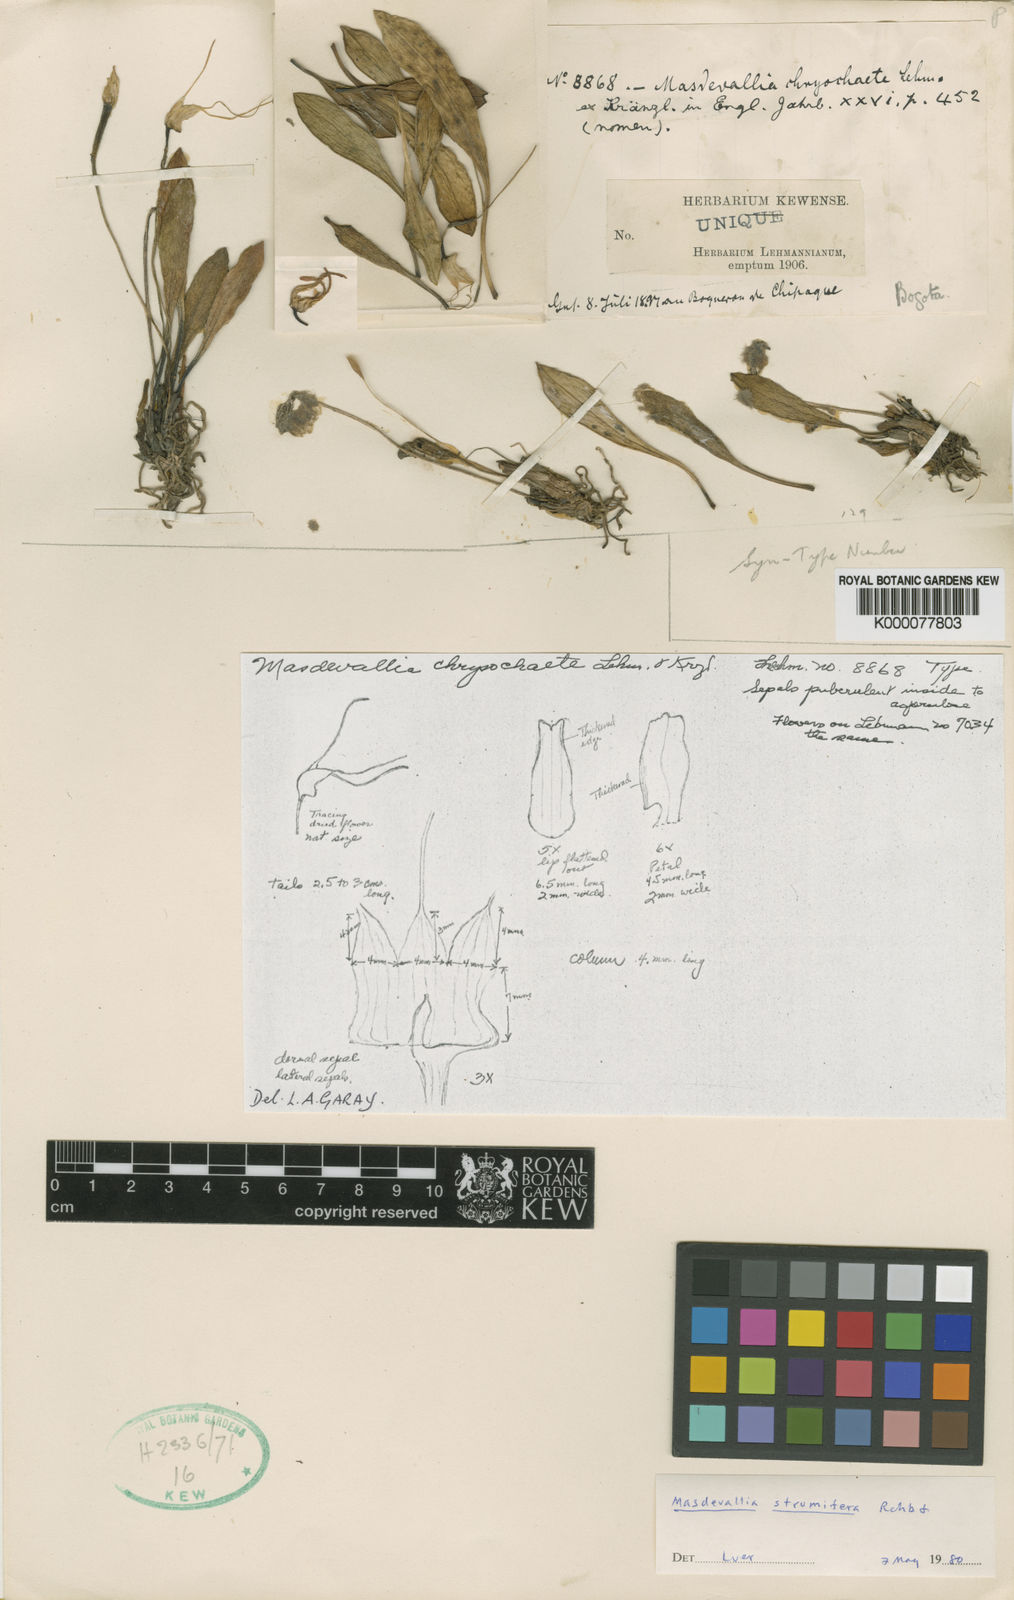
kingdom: Plantae
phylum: Tracheophyta
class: Liliopsida
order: Asparagales
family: Orchidaceae
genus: Masdevallia
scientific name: Masdevallia strumifera
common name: Goiter carrying masdevallia
